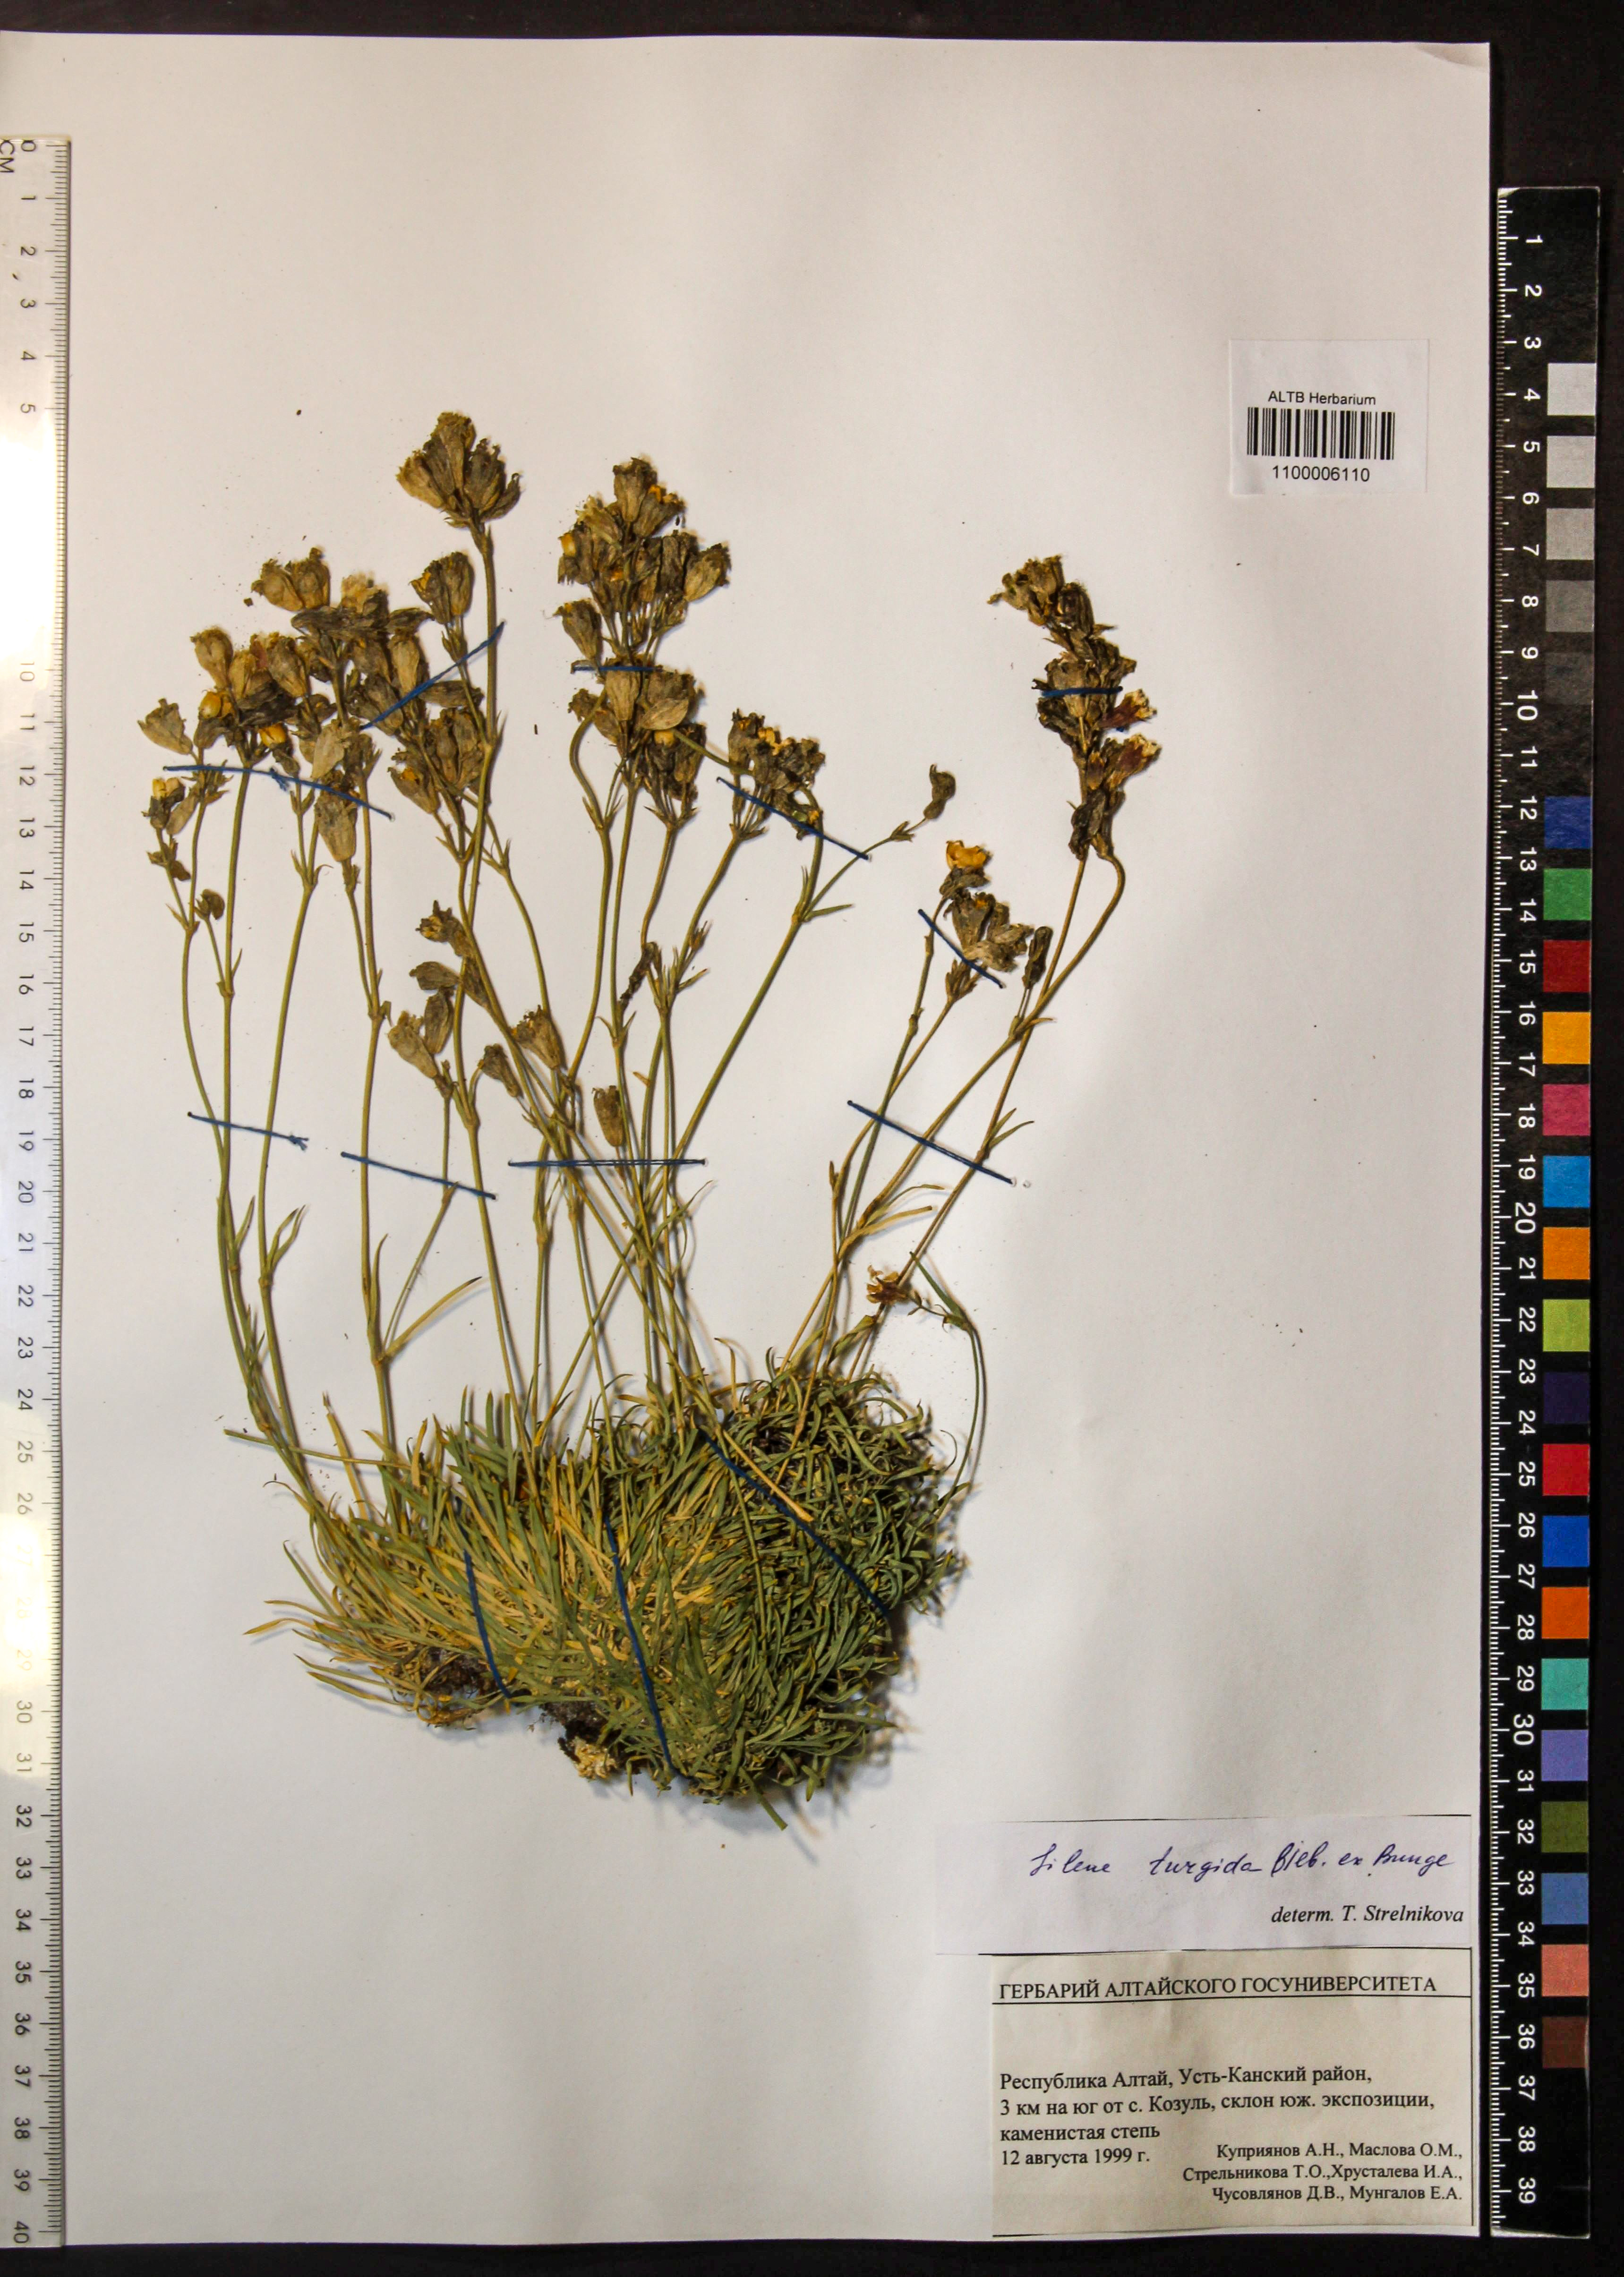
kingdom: Plantae
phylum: Tracheophyta
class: Magnoliopsida
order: Caryophyllales
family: Caryophyllaceae
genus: Silene
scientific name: Silene turgida
